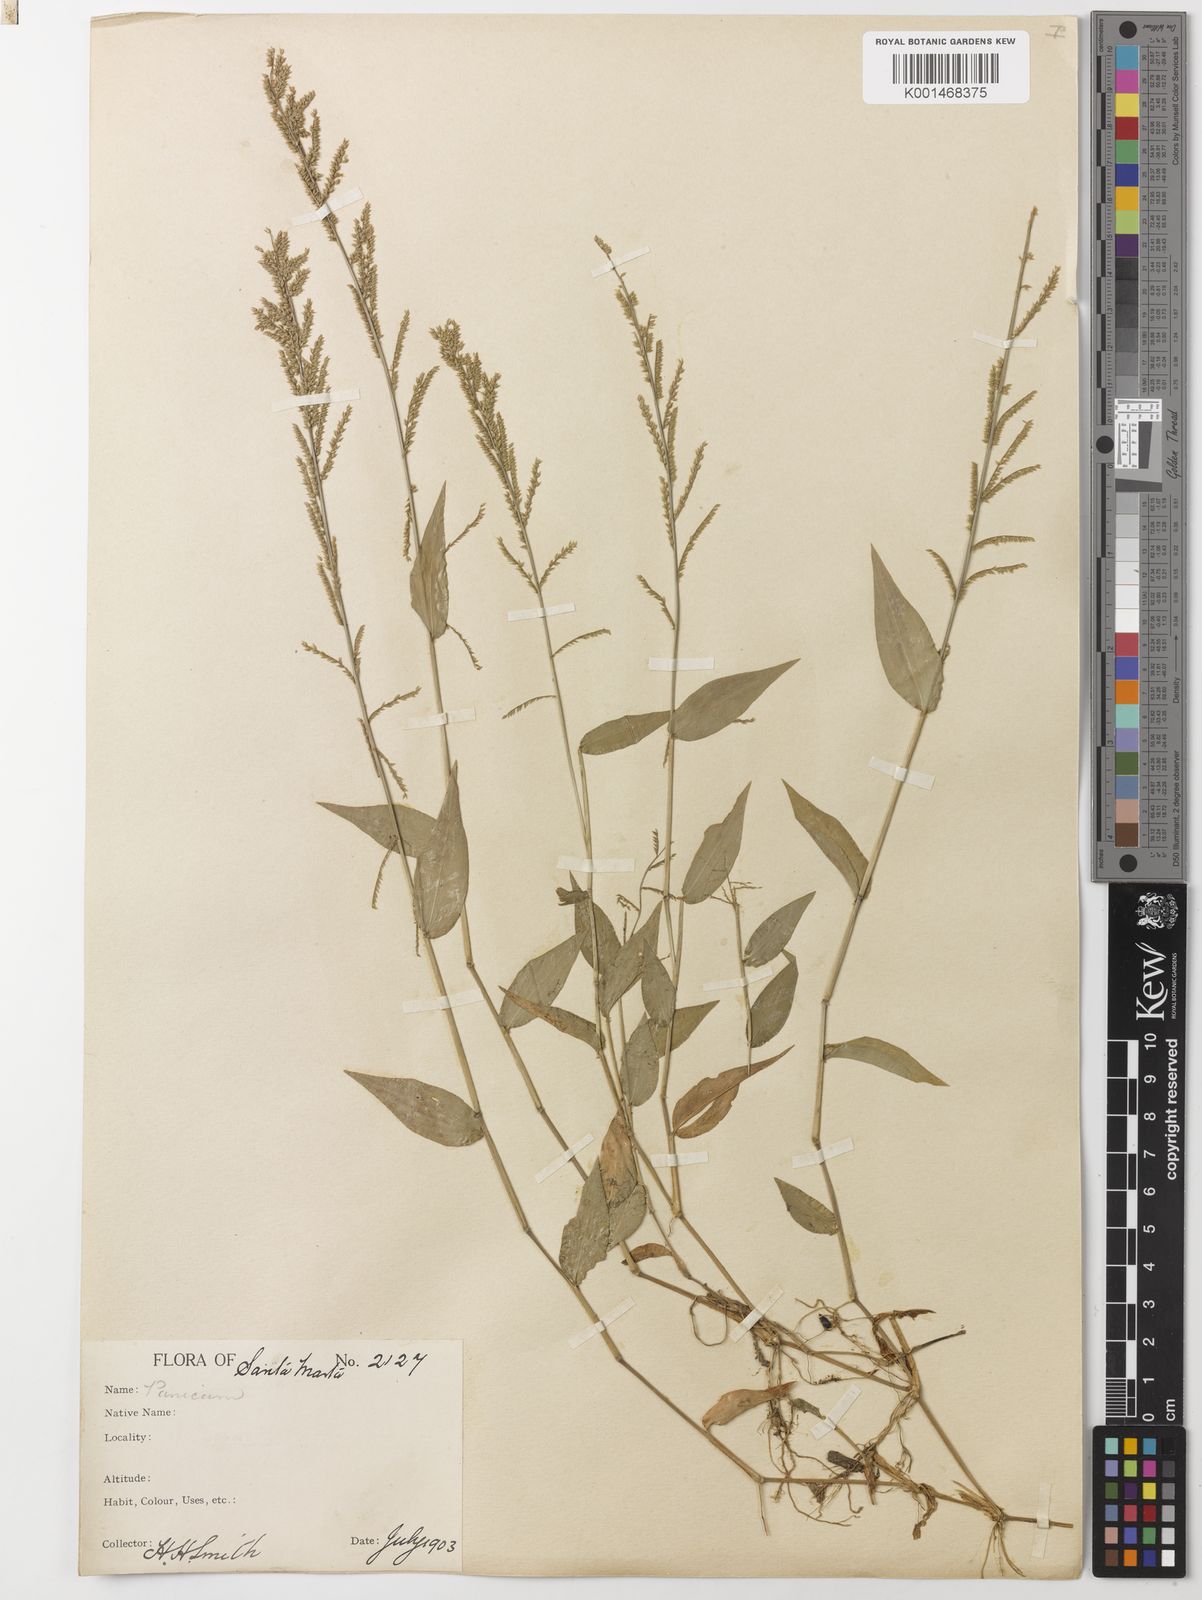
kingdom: Plantae
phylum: Tracheophyta
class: Liliopsida
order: Poales
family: Poaceae
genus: Ocellochloa
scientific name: Ocellochloa pulchella
